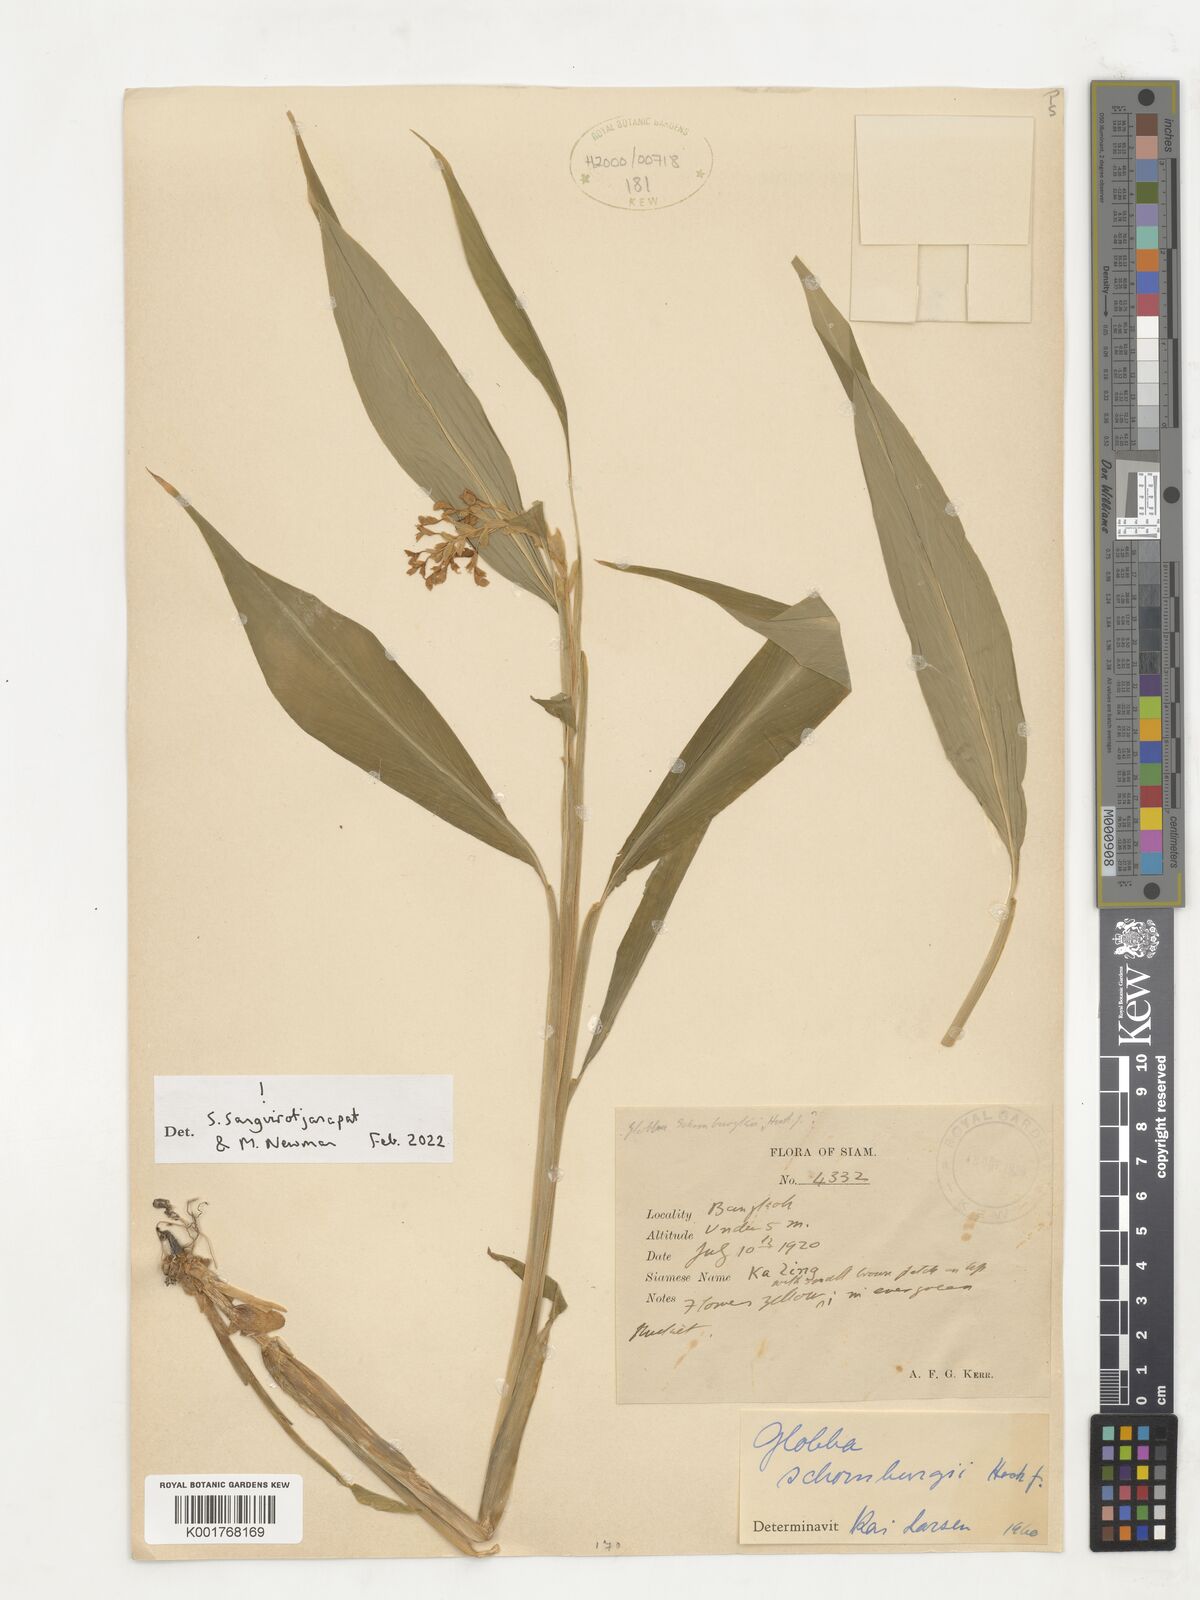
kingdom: Plantae
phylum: Tracheophyta
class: Liliopsida
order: Zingiberales
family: Zingiberaceae
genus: Globba
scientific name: Globba schomburgkii
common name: Dancing girl ginger
